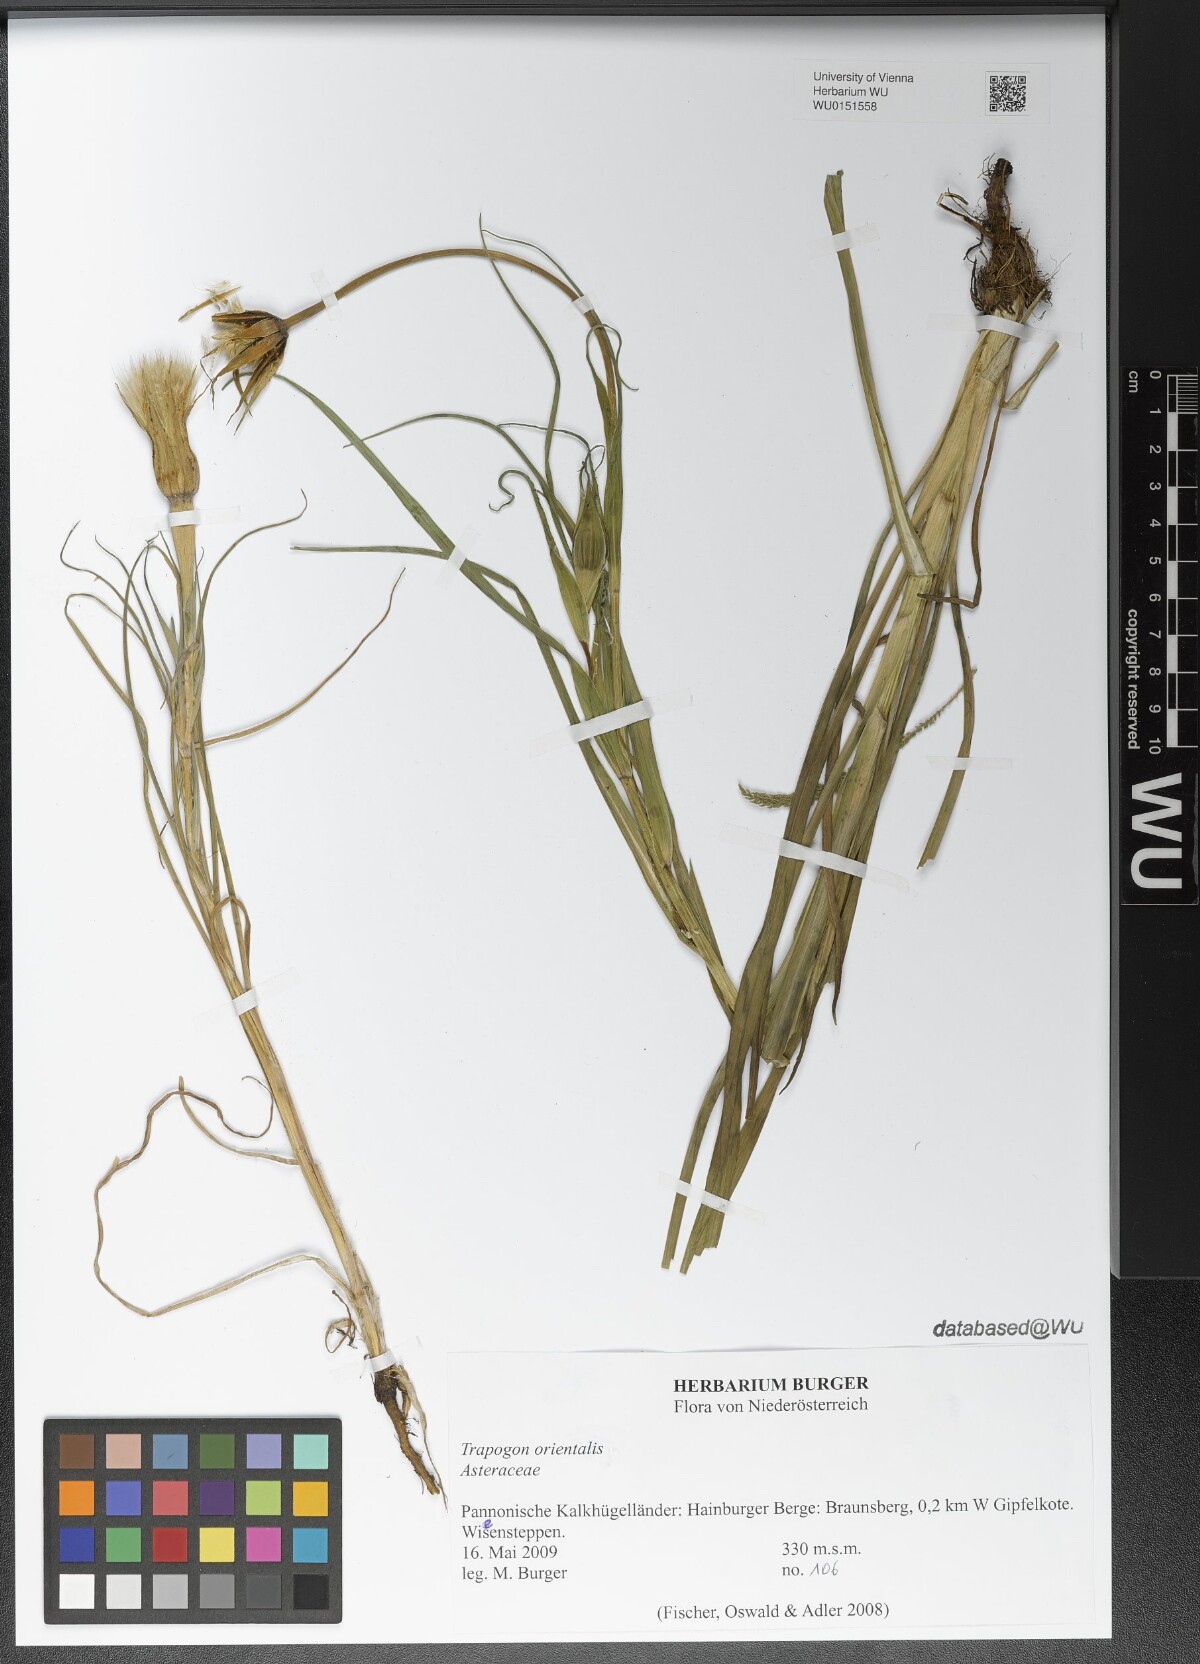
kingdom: Plantae
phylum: Tracheophyta
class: Magnoliopsida
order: Asterales
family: Asteraceae
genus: Tragopogon
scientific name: Tragopogon orientalis
